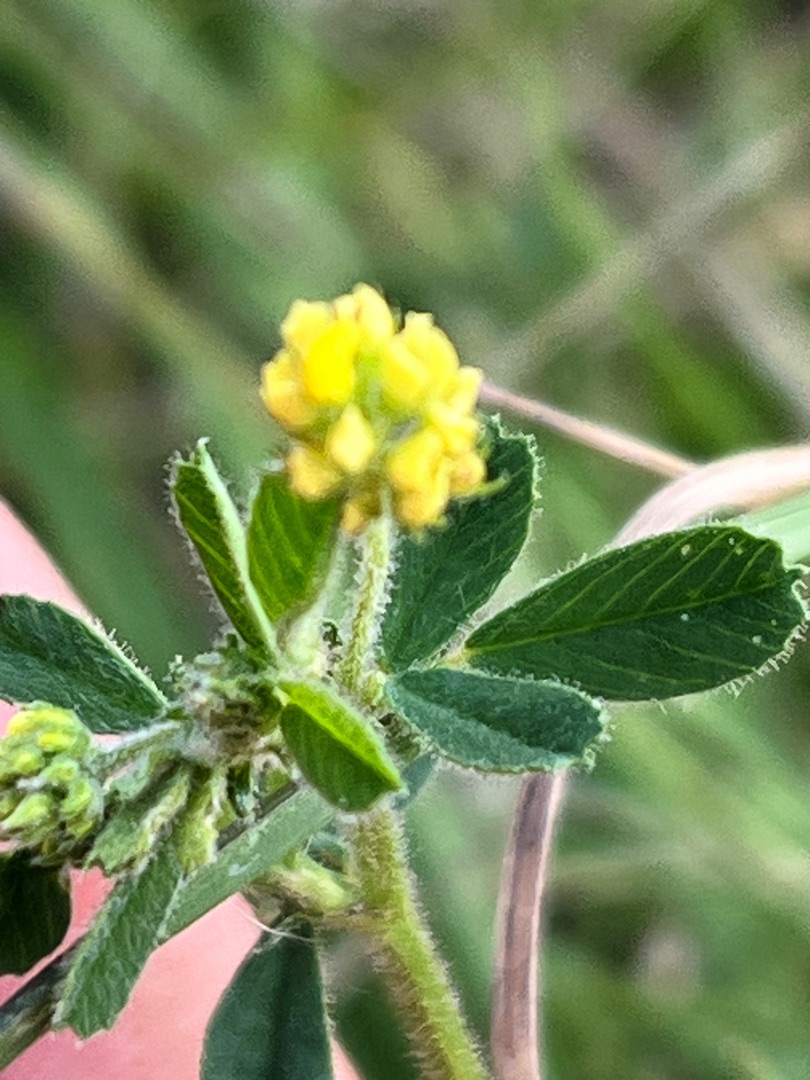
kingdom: Plantae
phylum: Tracheophyta
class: Magnoliopsida
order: Fabales
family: Fabaceae
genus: Medicago
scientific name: Medicago lupulina
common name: Humle-sneglebælg
